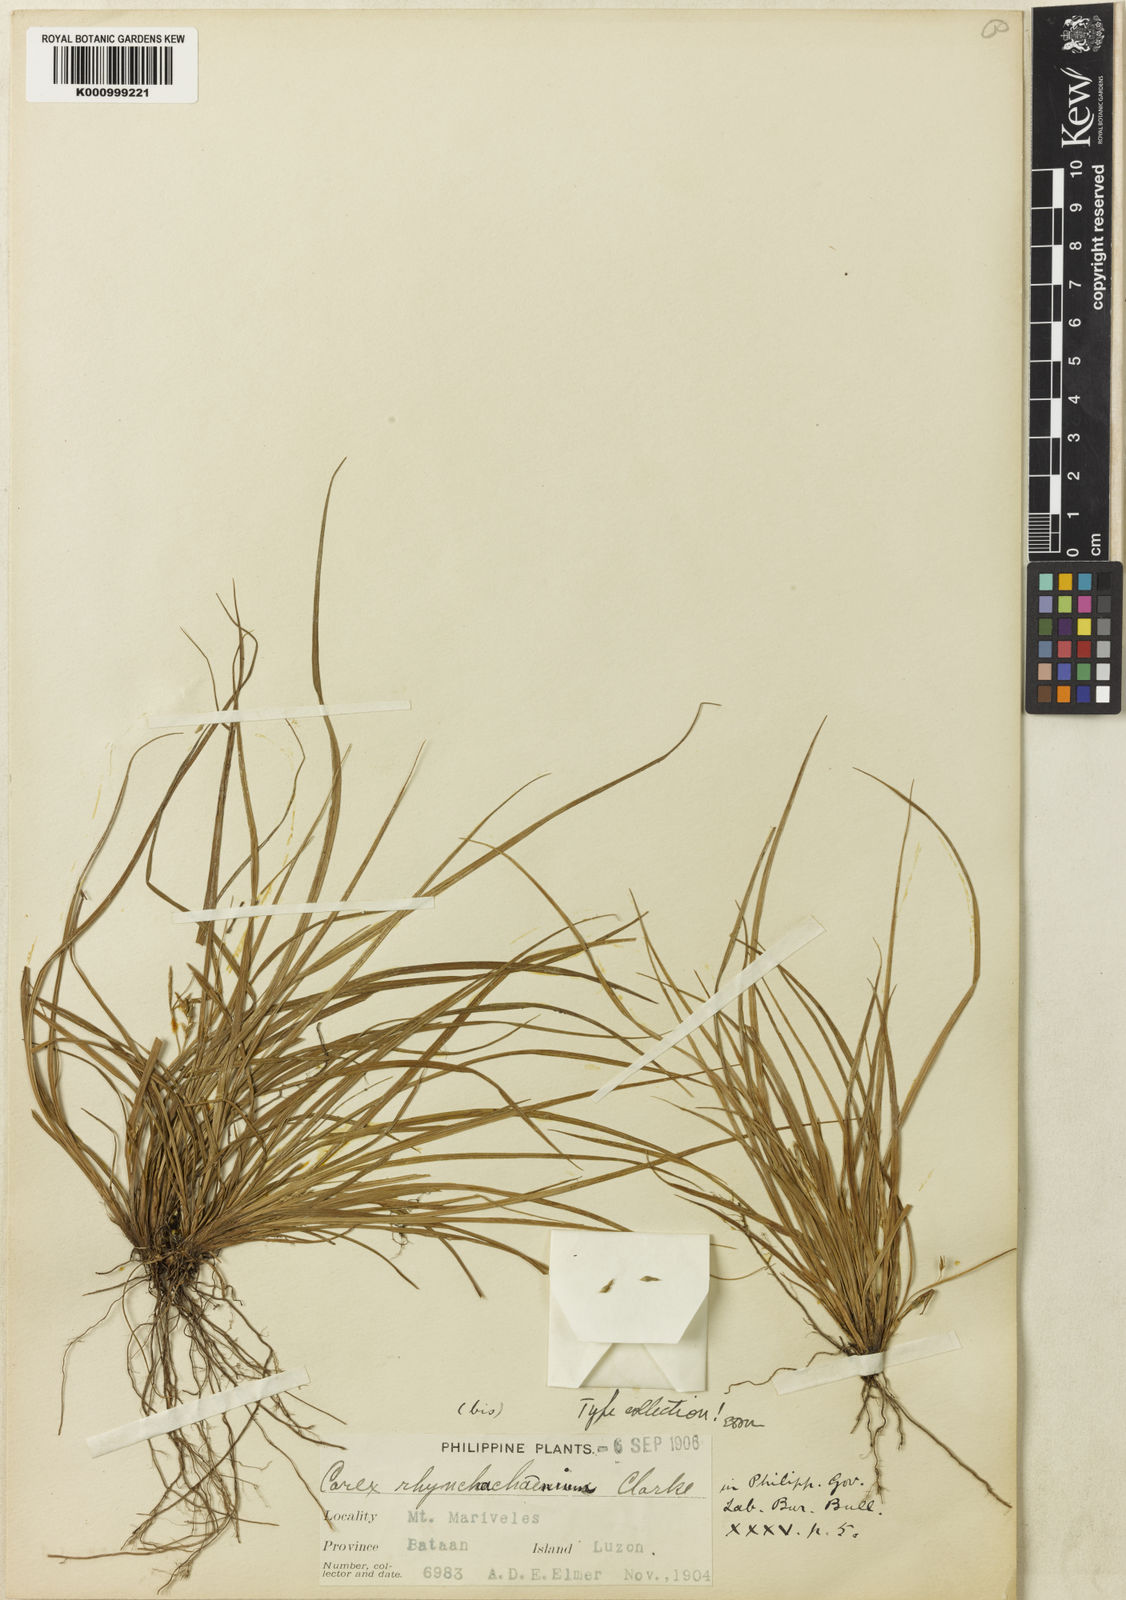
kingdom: Plantae
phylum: Tracheophyta
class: Liliopsida
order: Poales
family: Cyperaceae
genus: Carex
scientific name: Carex rhynchachaenium
